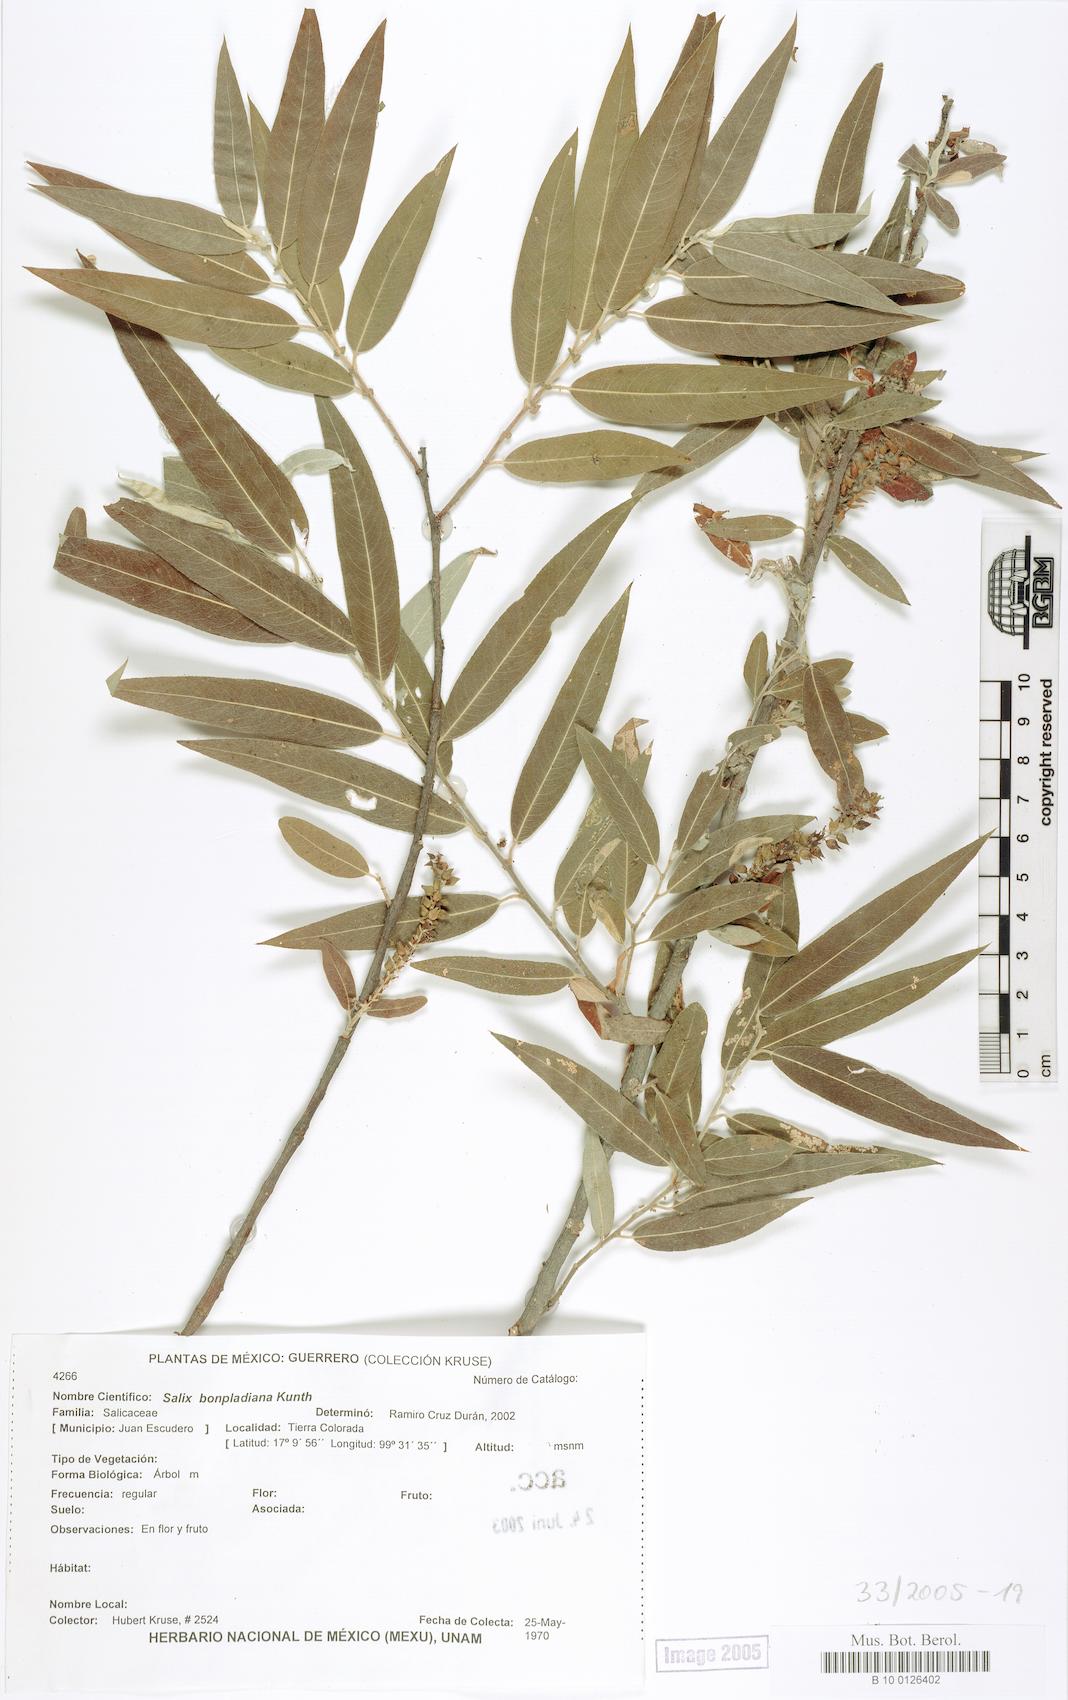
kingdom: Plantae
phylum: Tracheophyta
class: Magnoliopsida
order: Malpighiales
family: Salicaceae
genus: Salix
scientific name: Salix bonplandiana
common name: Bonpland’s willow
